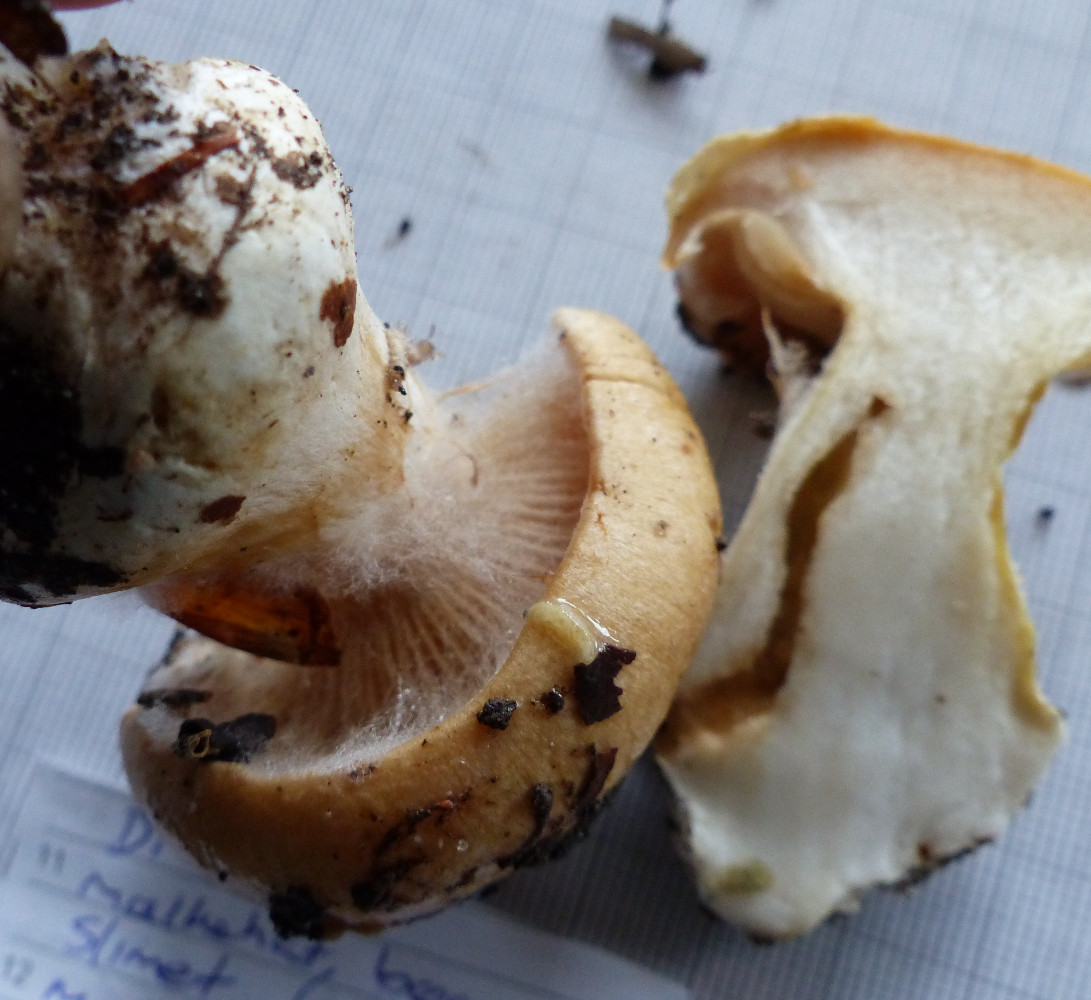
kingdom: Fungi
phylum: Basidiomycota
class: Agaricomycetes
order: Agaricales
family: Cortinariaceae
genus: Thaxterogaster
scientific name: Thaxterogaster talus
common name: knogle-slørhat
